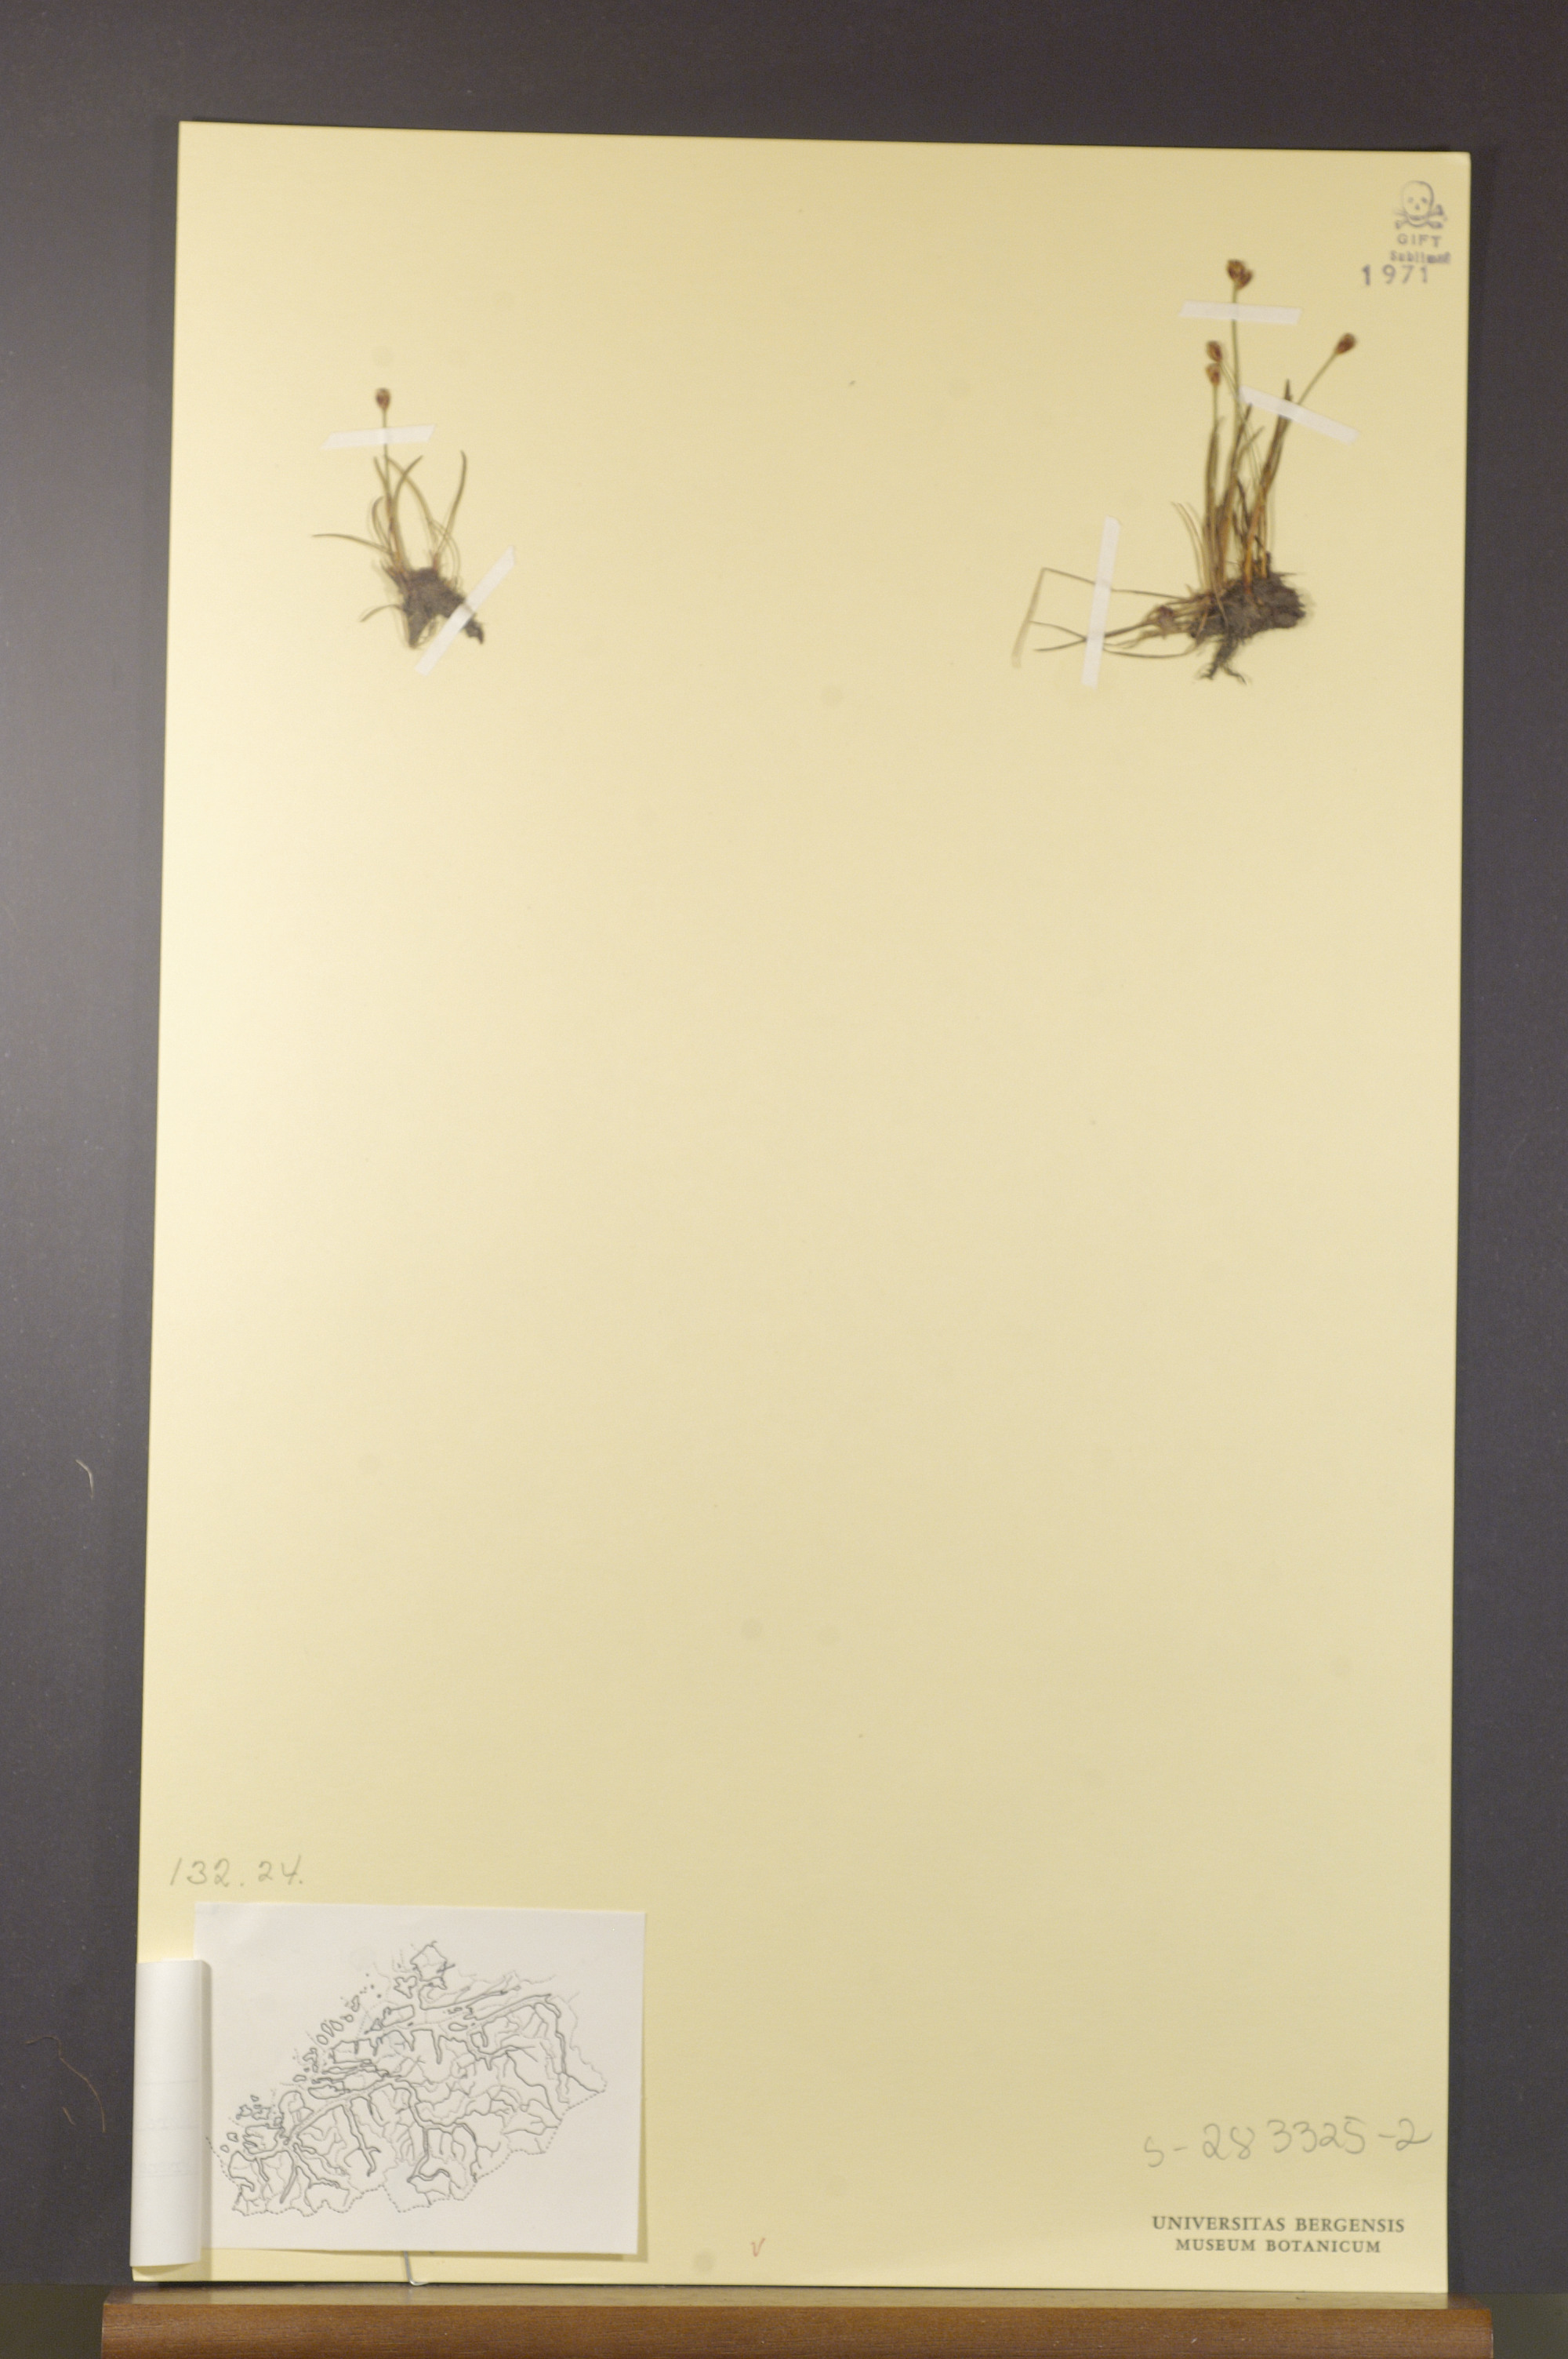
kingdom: Plantae
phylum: Tracheophyta
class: Liliopsida
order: Poales
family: Juncaceae
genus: Juncus
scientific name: Juncus triglumis
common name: Three-flowered rush
